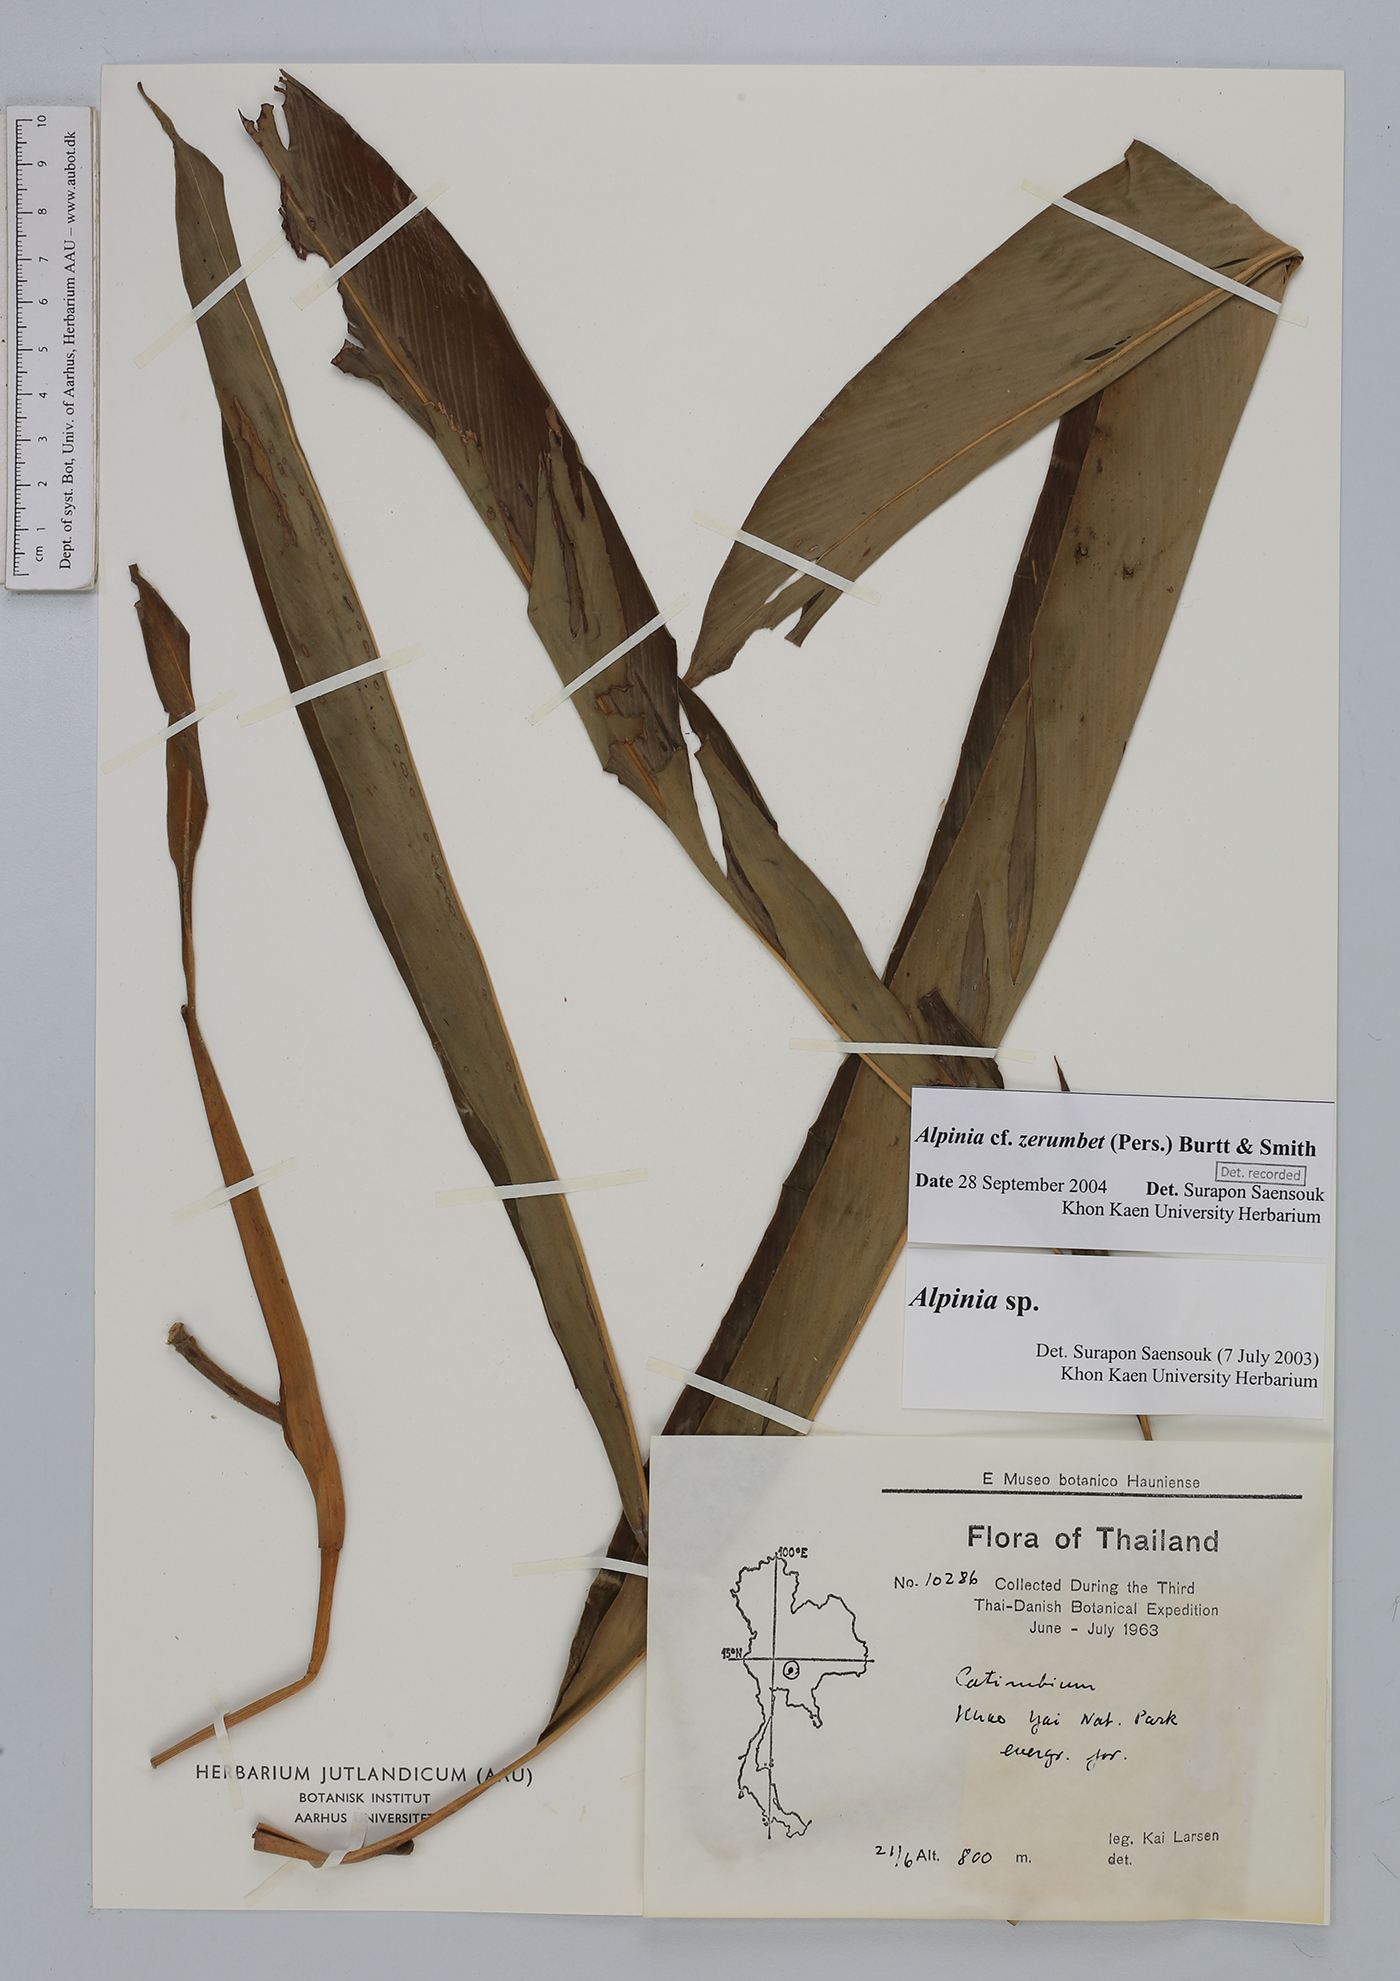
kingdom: Plantae
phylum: Tracheophyta
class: Liliopsida
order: Zingiberales
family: Zingiberaceae
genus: Alpinia
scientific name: Alpinia zerumbet
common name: Shellplant
